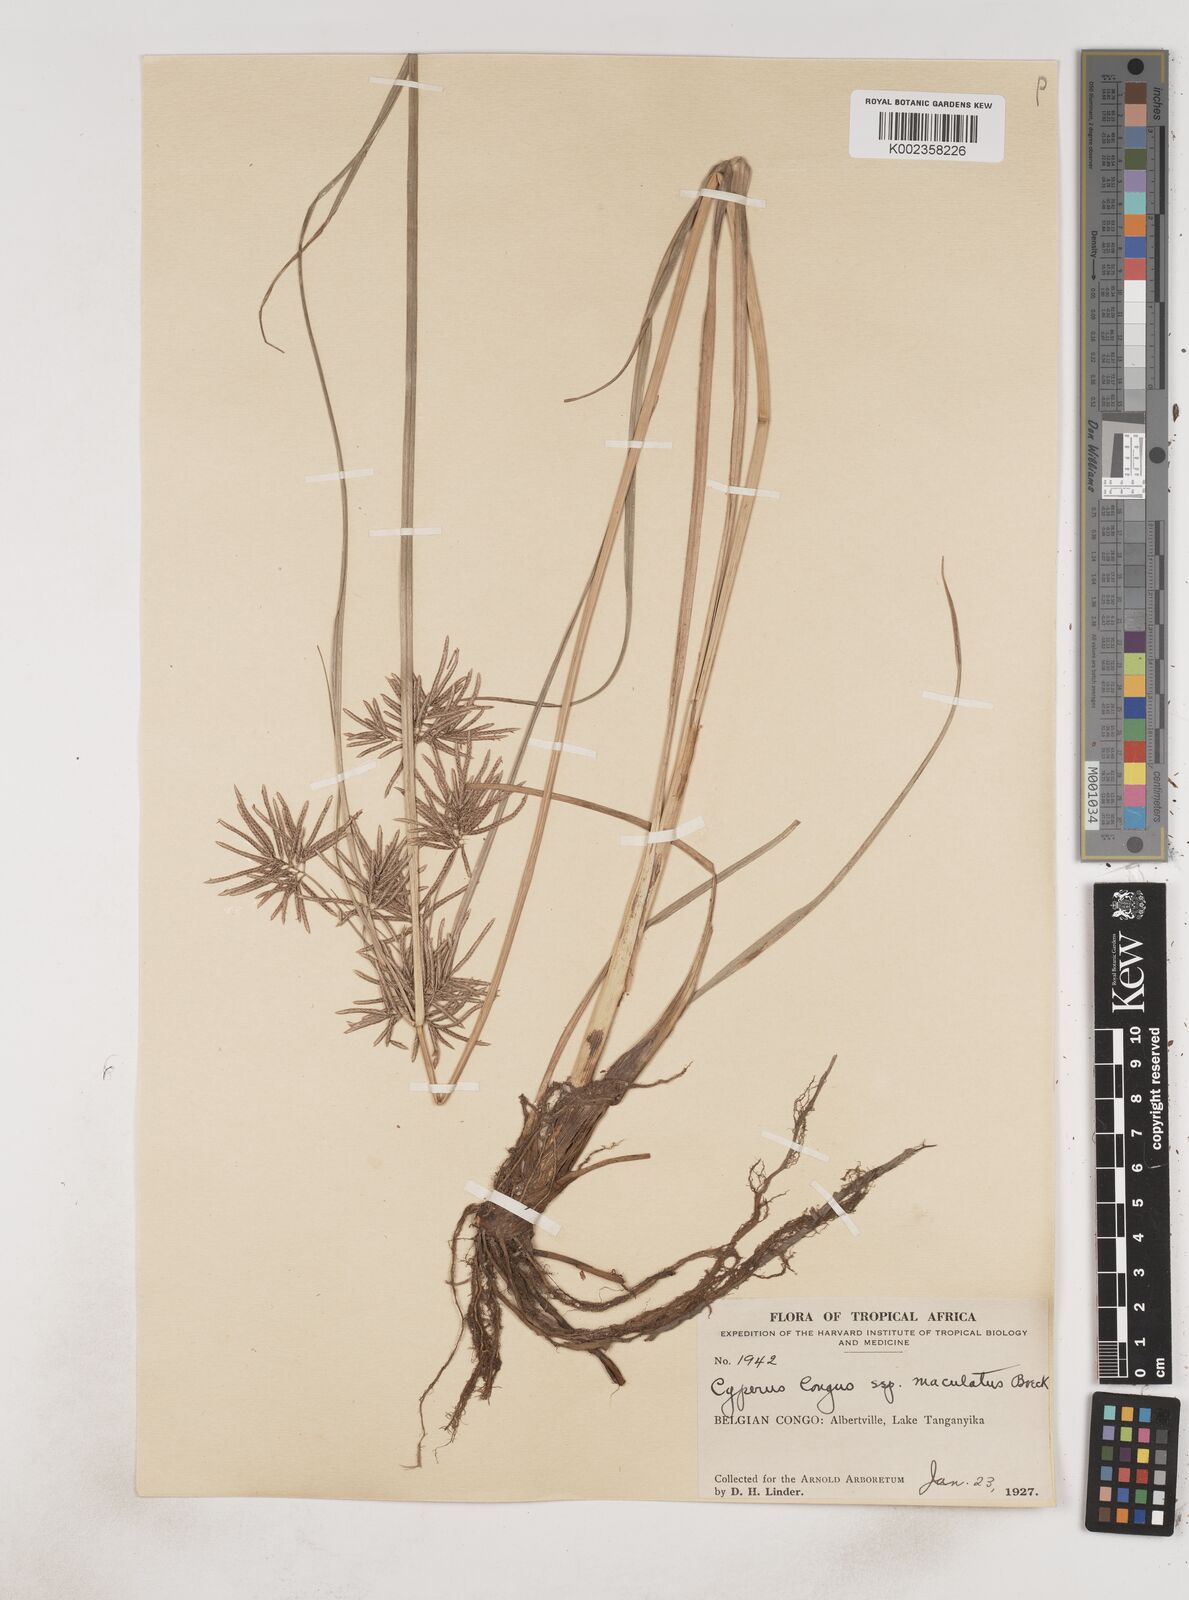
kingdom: Plantae
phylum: Tracheophyta
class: Liliopsida
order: Poales
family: Cyperaceae
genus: Cyperus
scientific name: Cyperus maculatus
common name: Maculated sedge
